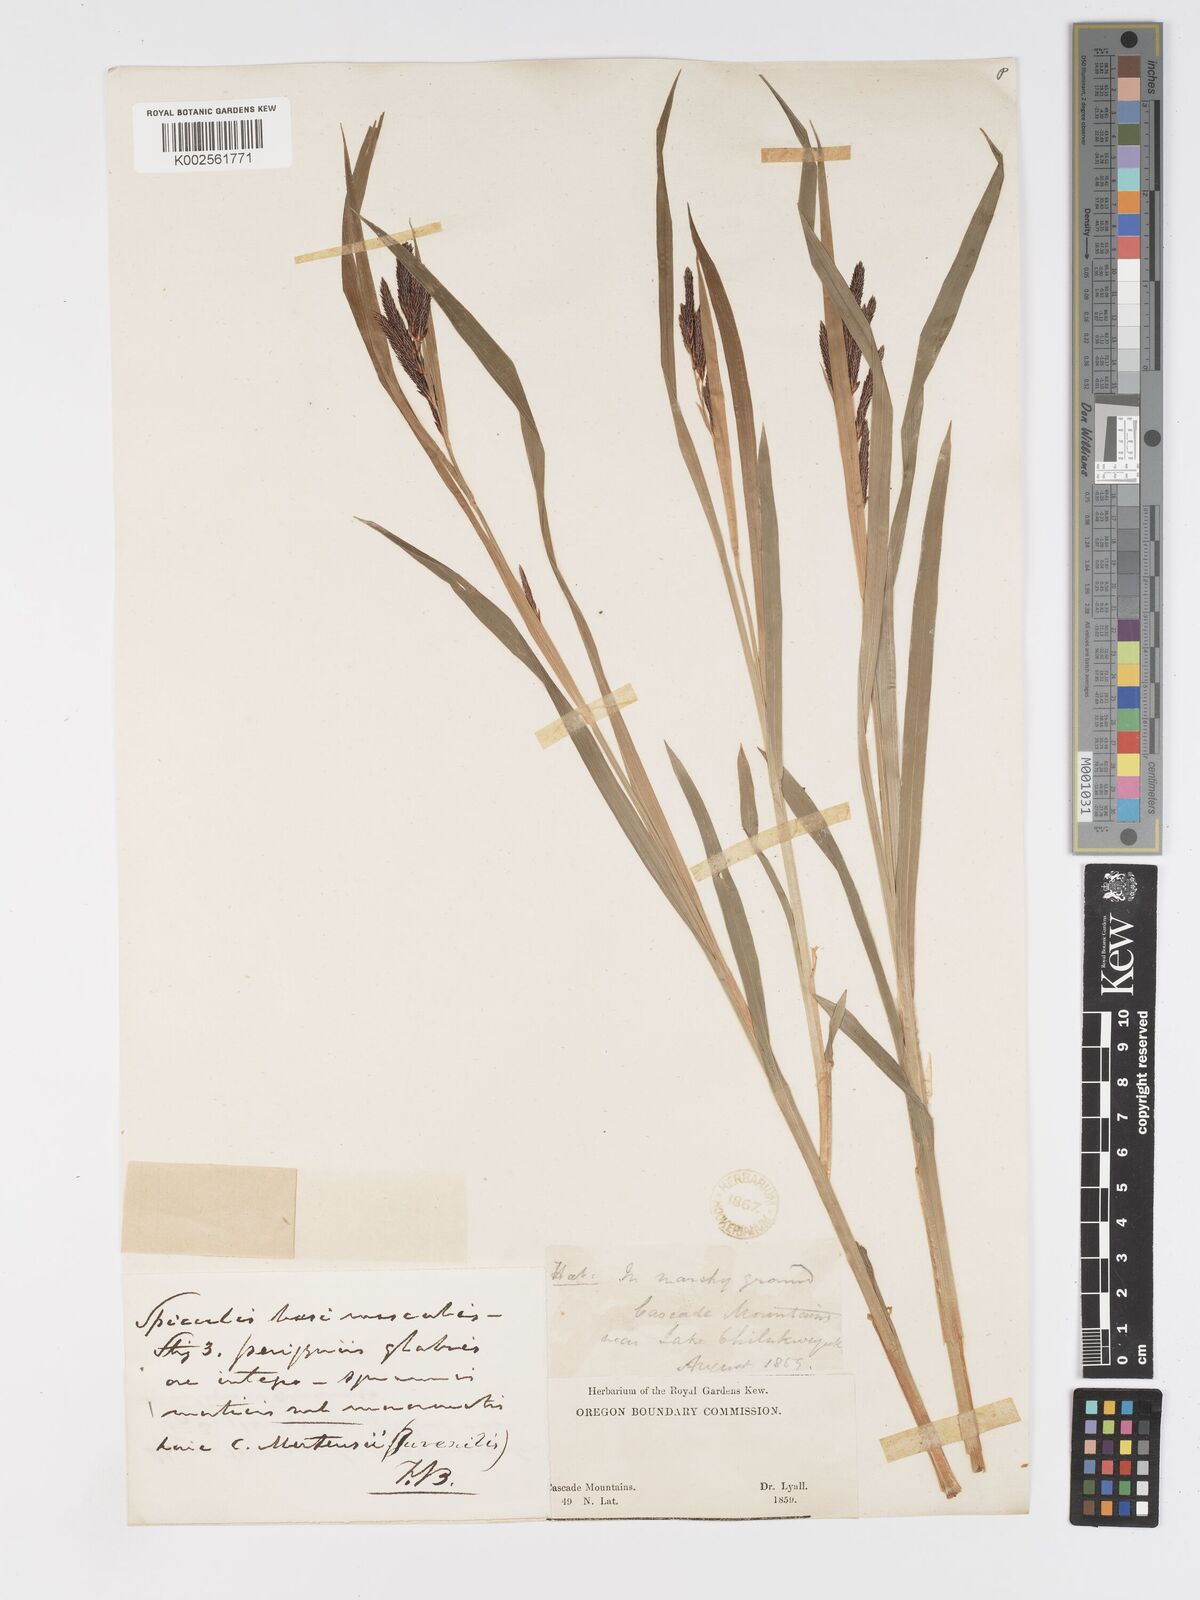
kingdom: Plantae
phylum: Tracheophyta
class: Liliopsida
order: Poales
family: Cyperaceae
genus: Carex
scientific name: Carex mertensii
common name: Mertens' sedge
